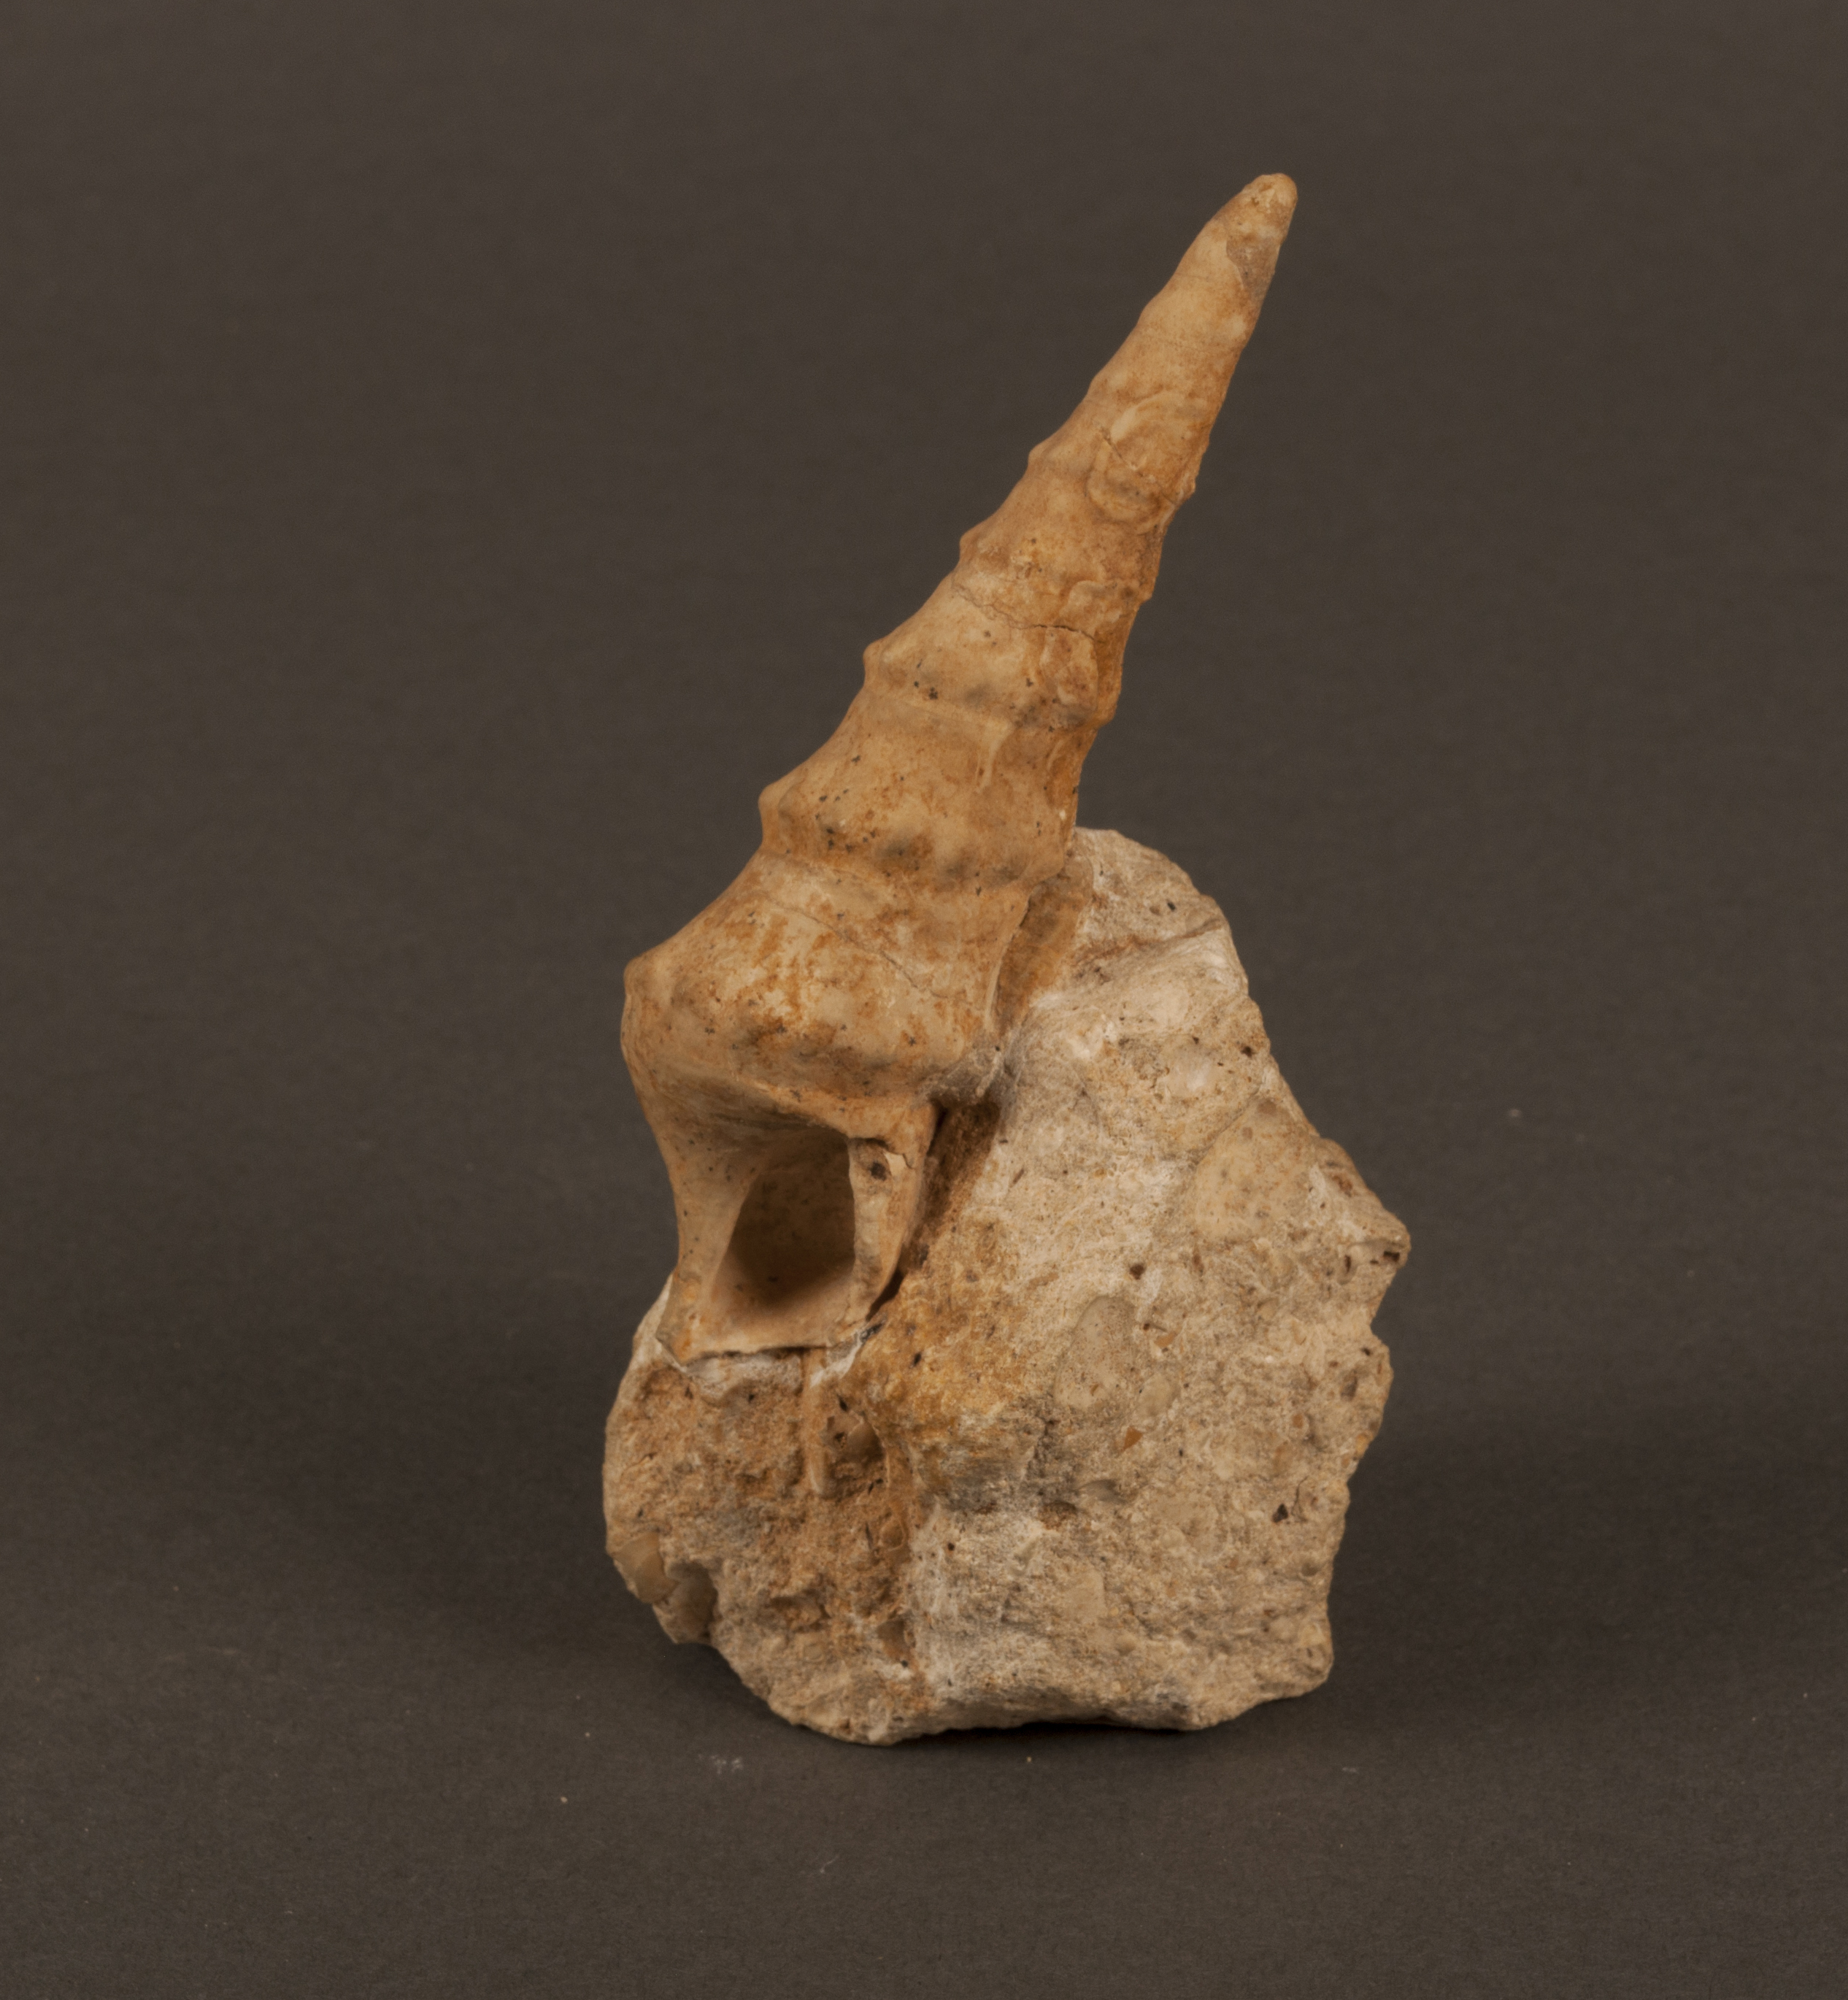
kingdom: Animalia
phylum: Mollusca
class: Gastropoda
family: Zygopleuridae
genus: Zygopleura
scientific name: Zygopleura Cerithium verrucosa
